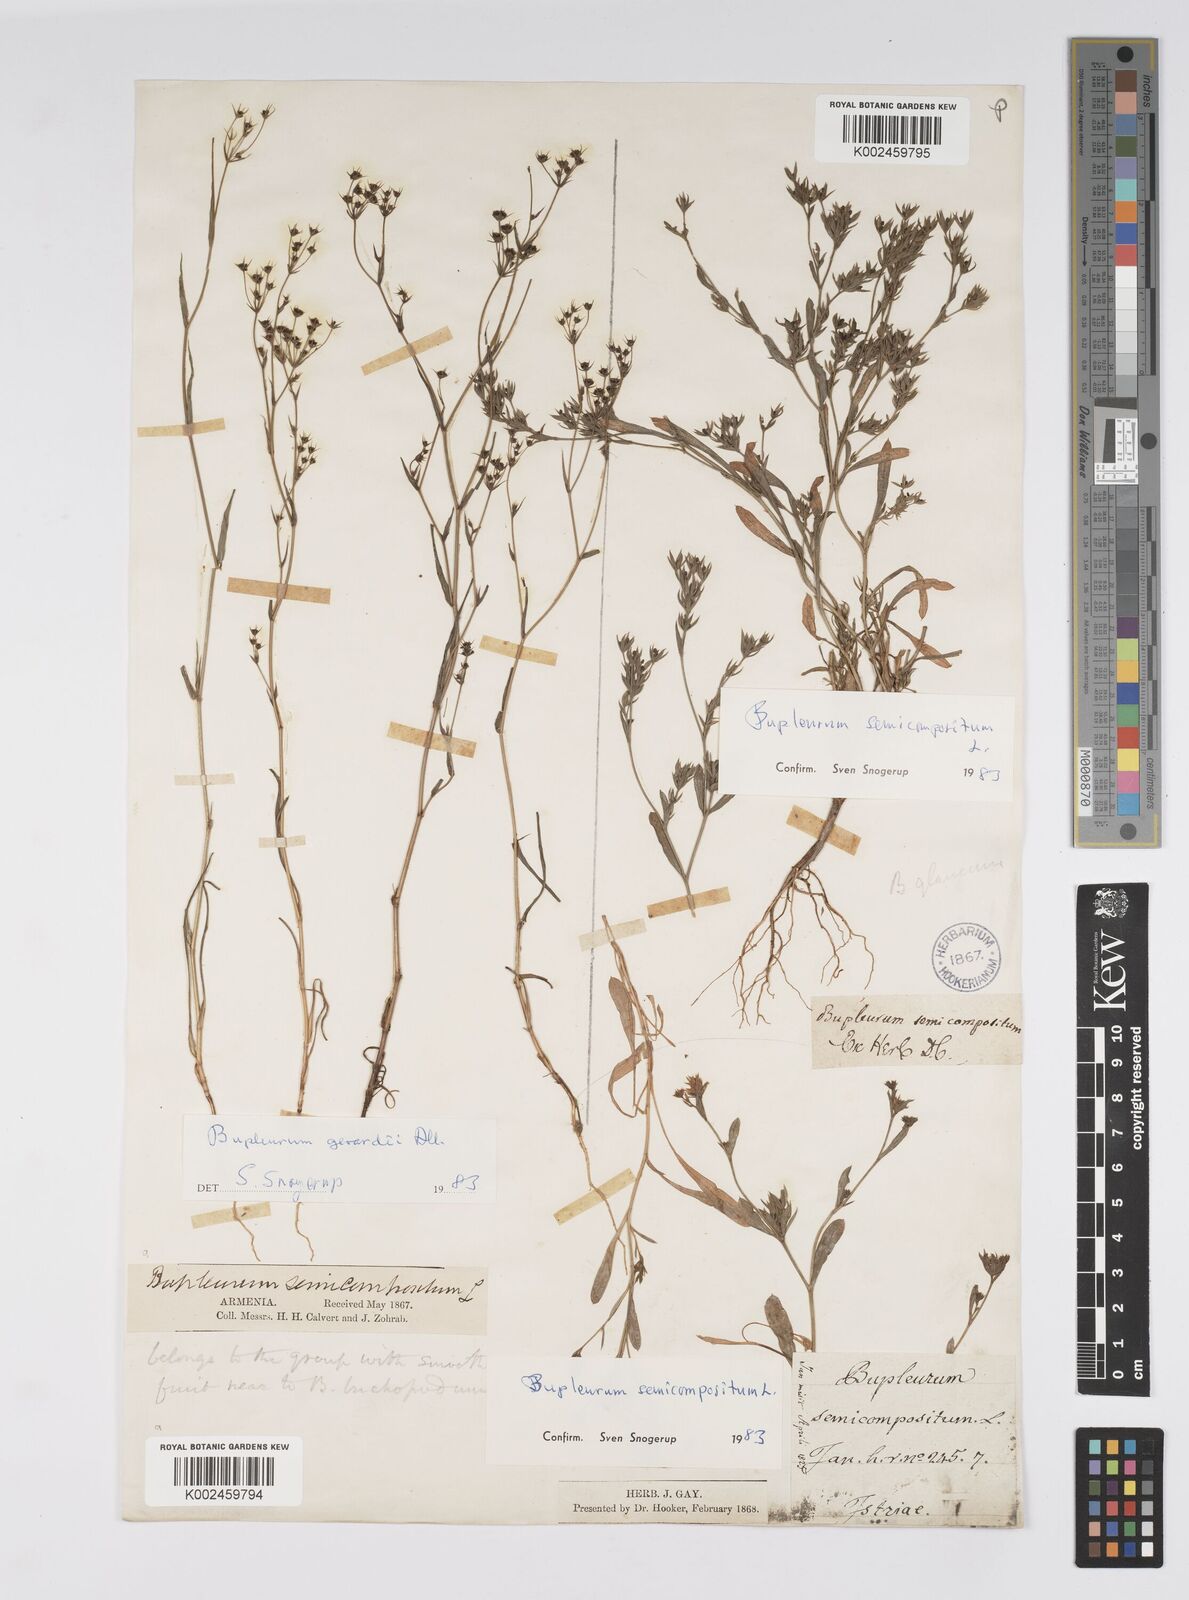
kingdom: Plantae
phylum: Tracheophyta
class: Magnoliopsida
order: Apiales
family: Apiaceae
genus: Bupleurum
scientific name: Bupleurum semicompositum
